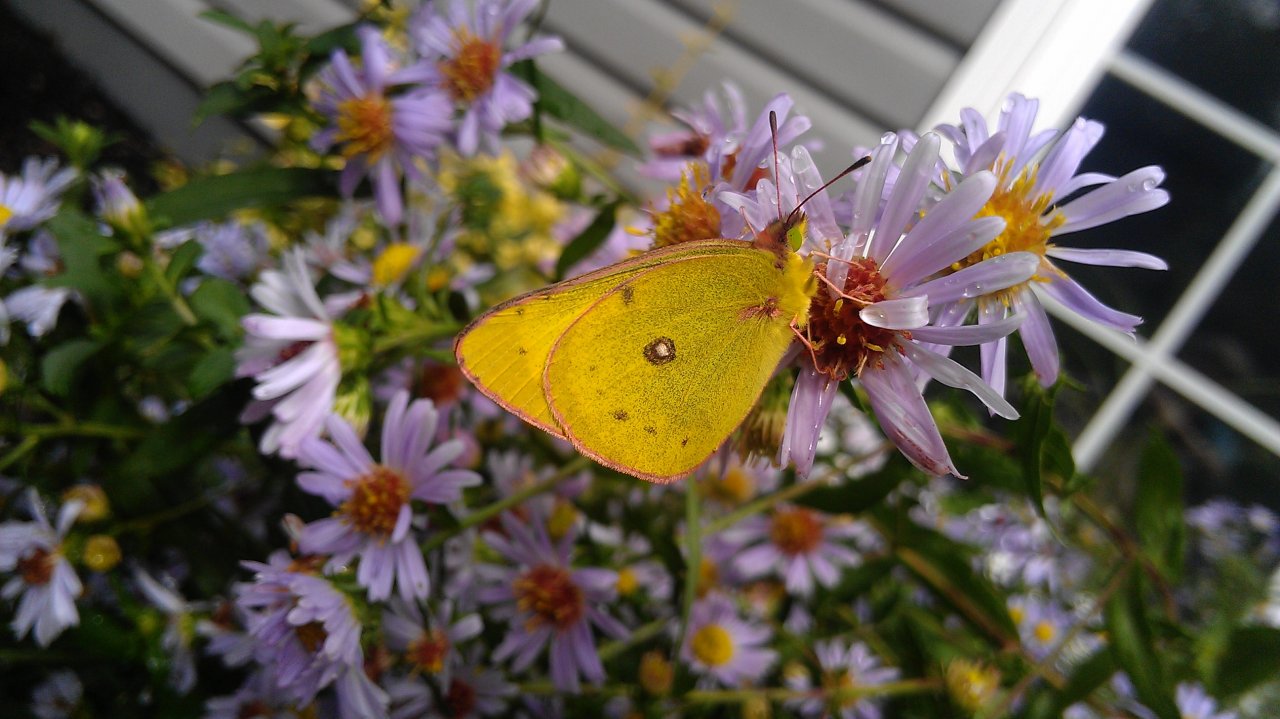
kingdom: Animalia
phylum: Arthropoda
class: Insecta
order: Lepidoptera
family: Pieridae
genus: Colias
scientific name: Colias philodice
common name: Clouded Sulphur
